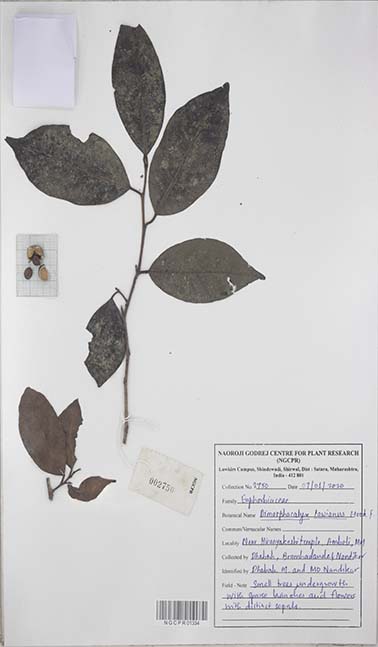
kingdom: Plantae
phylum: Tracheophyta
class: Magnoliopsida
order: Malpighiales
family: Euphorbiaceae
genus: Tritaxis
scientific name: Tritaxis glabella
